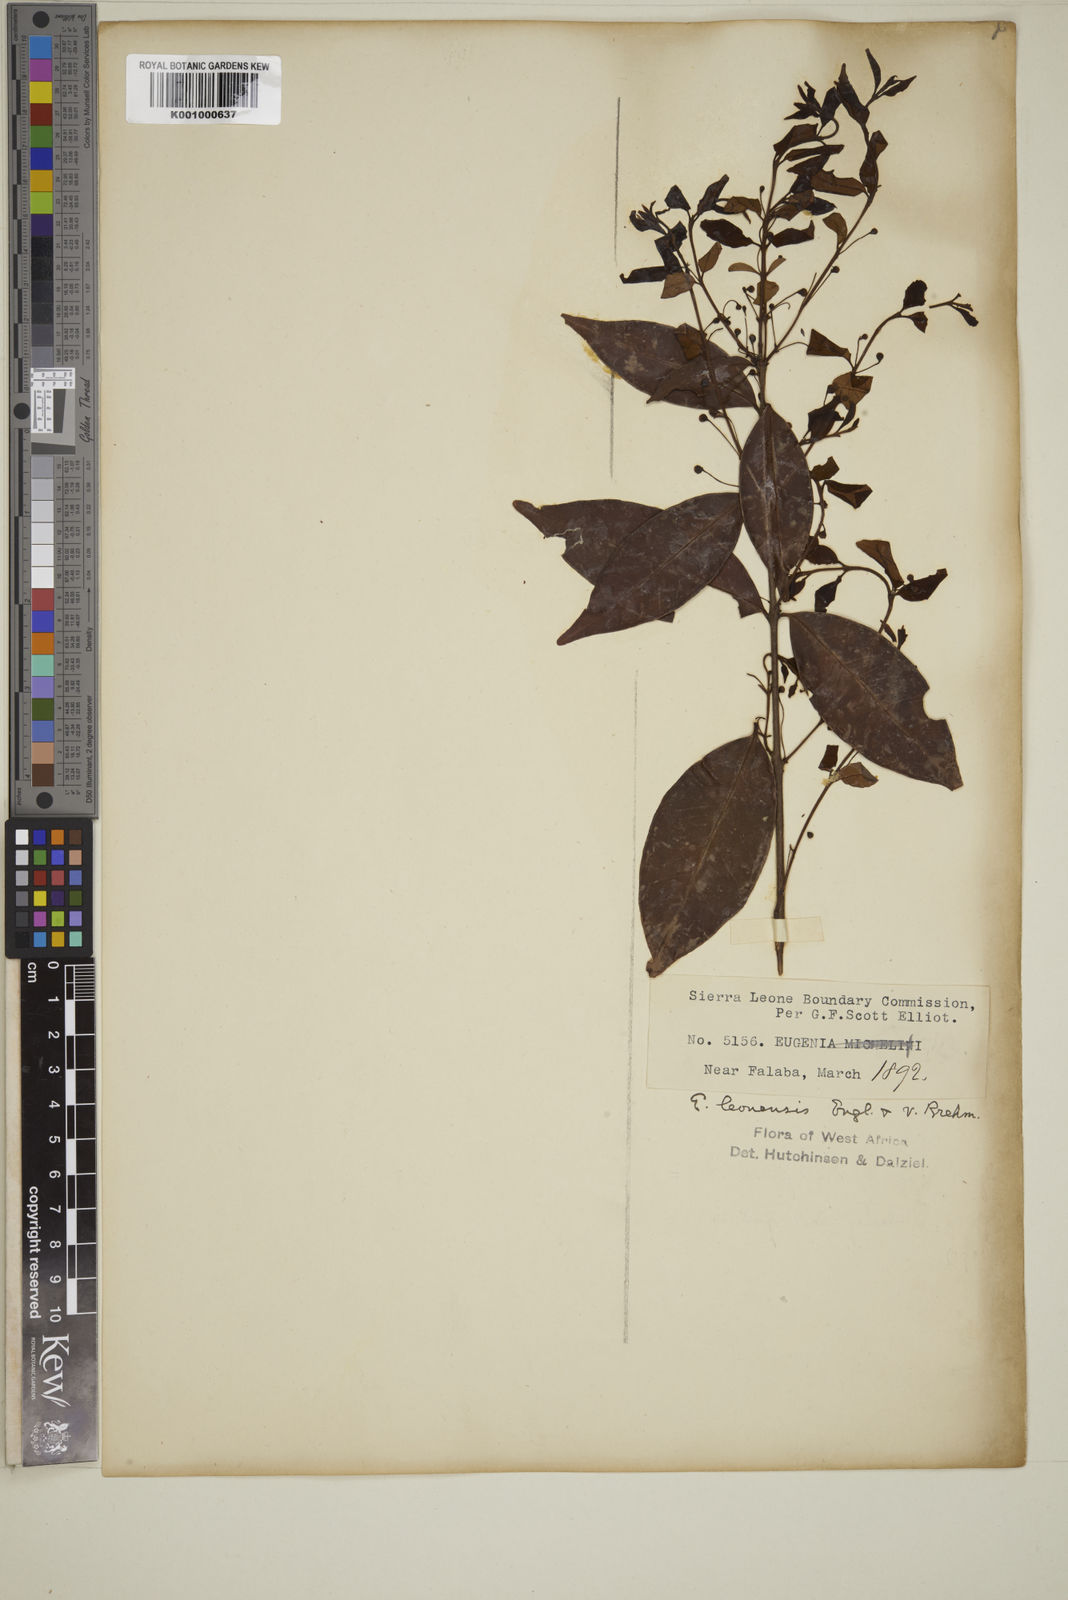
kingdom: Plantae
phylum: Tracheophyta
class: Magnoliopsida
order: Myrtales
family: Myrtaceae
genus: Eugenia
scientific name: Eugenia leonensis
